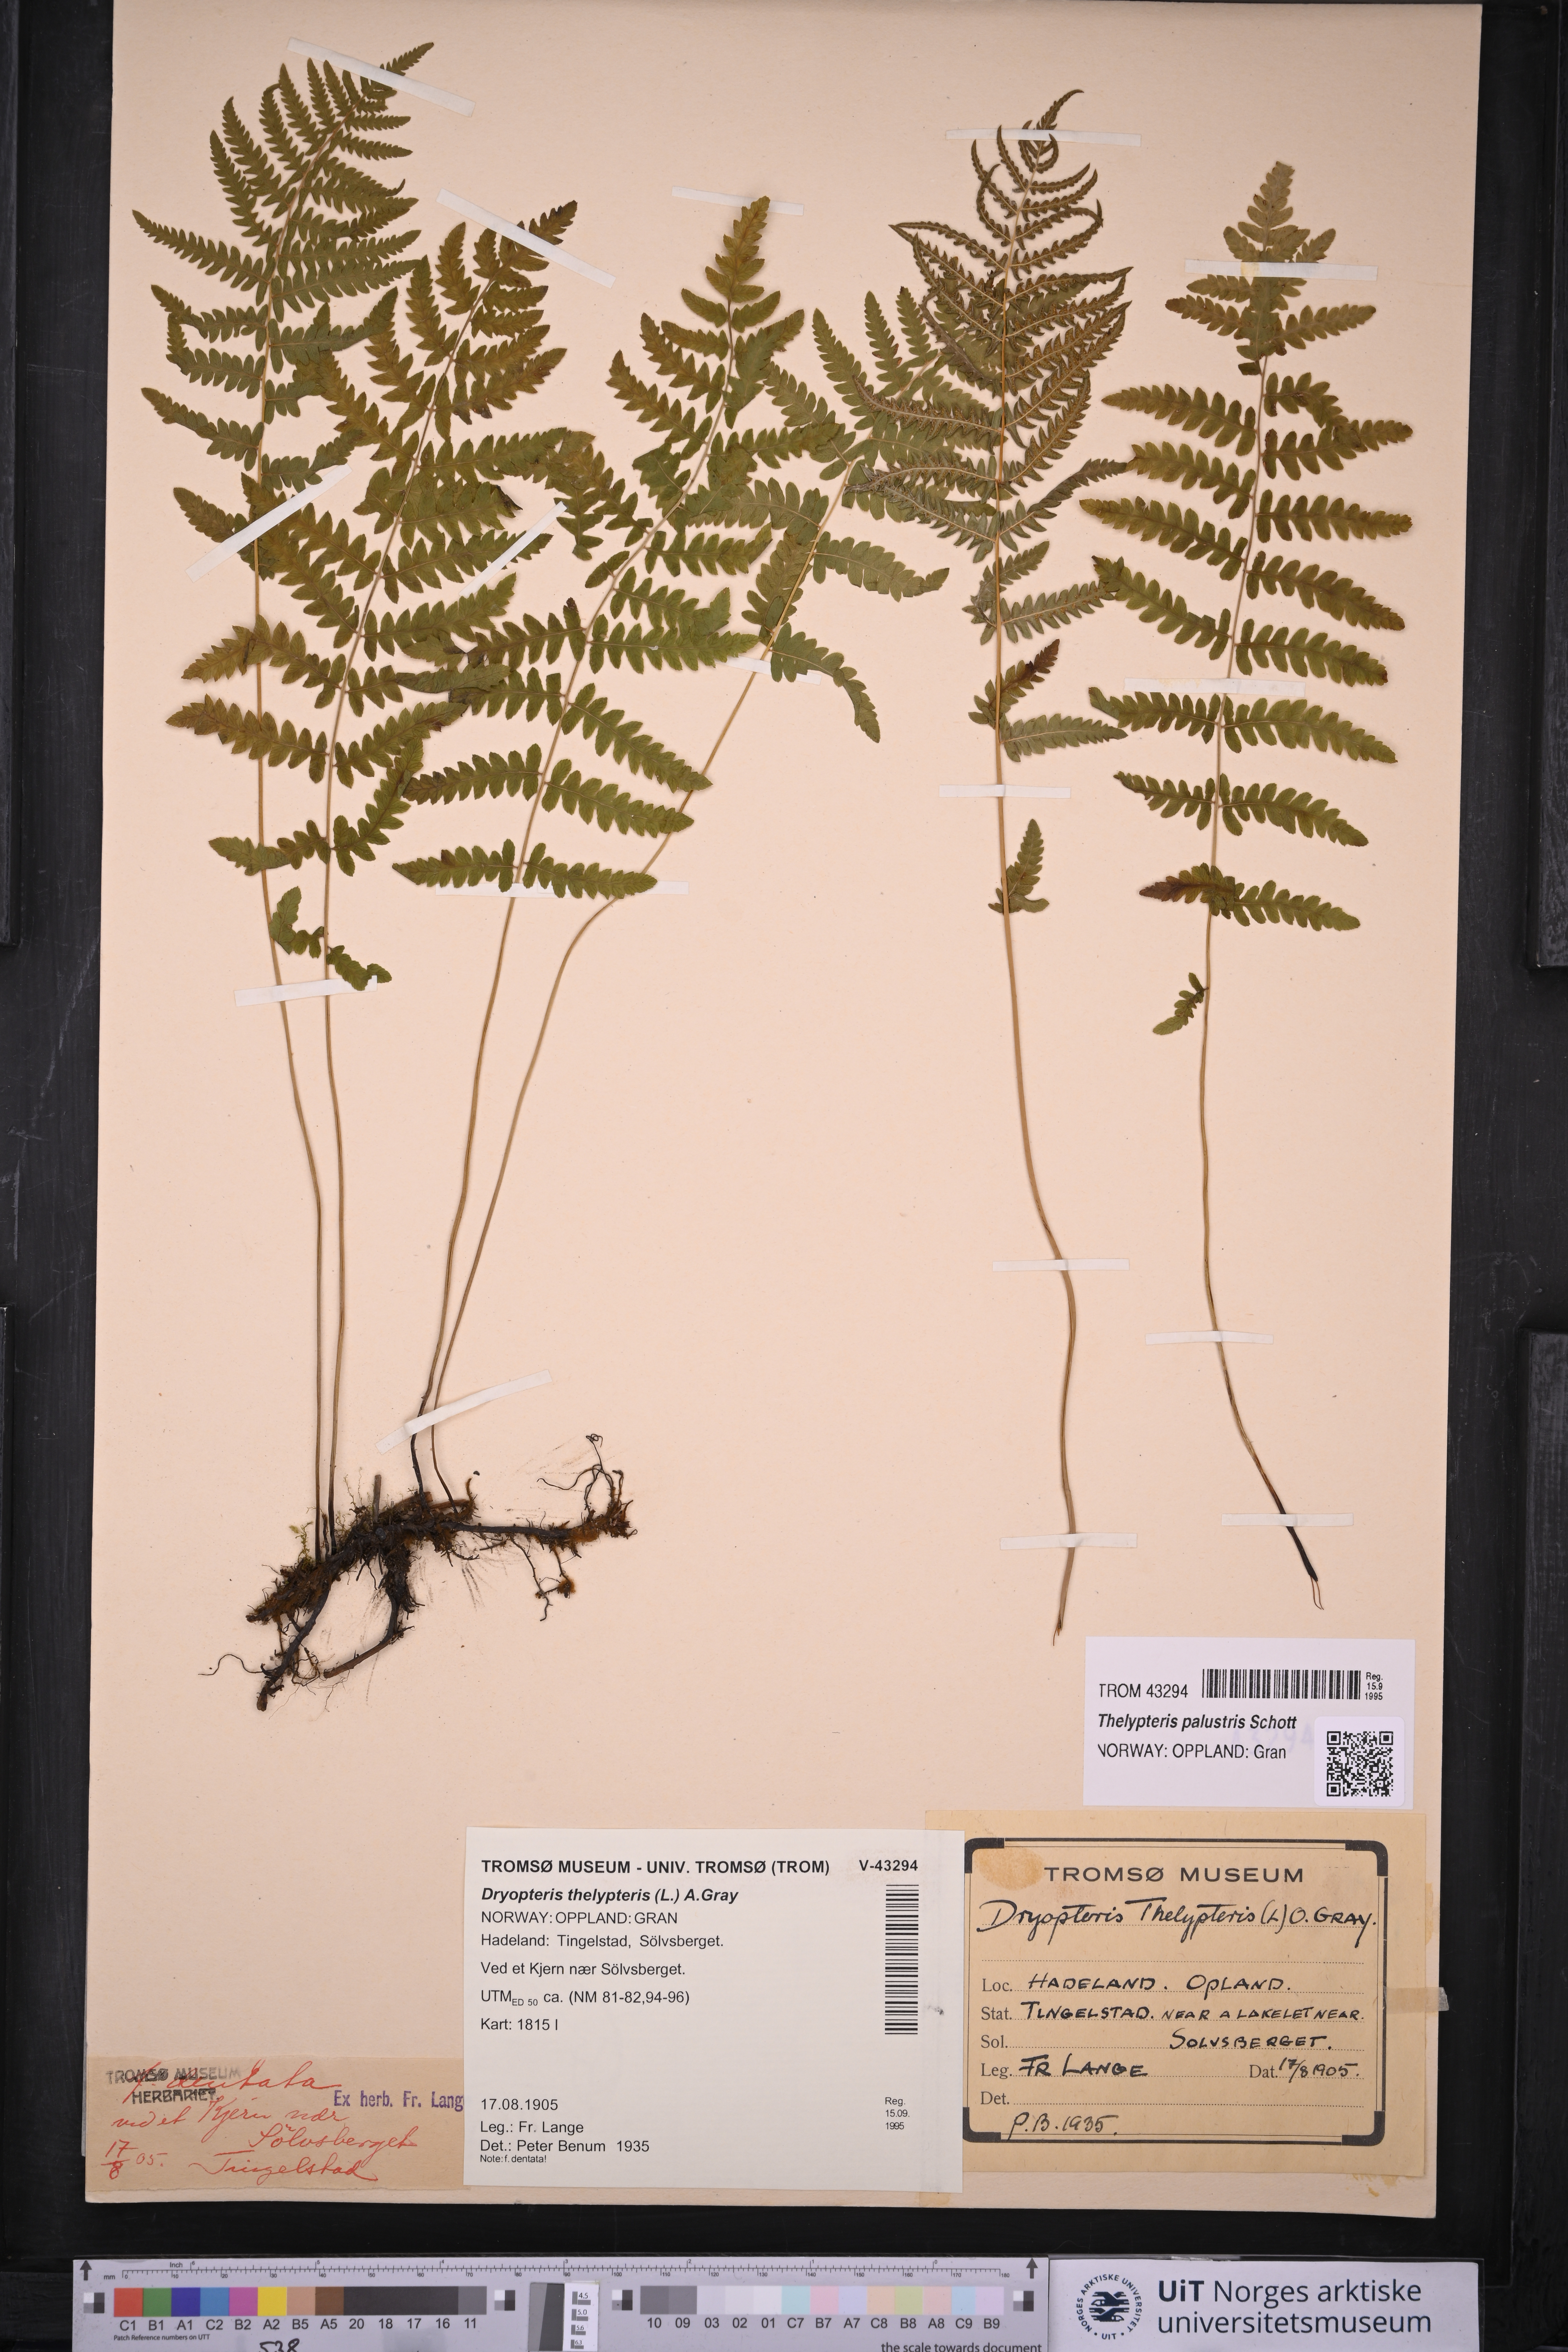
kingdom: Plantae
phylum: Tracheophyta
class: Polypodiopsida
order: Polypodiales
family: Thelypteridaceae
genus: Thelypteris
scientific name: Thelypteris palustris
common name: Marsh fern
